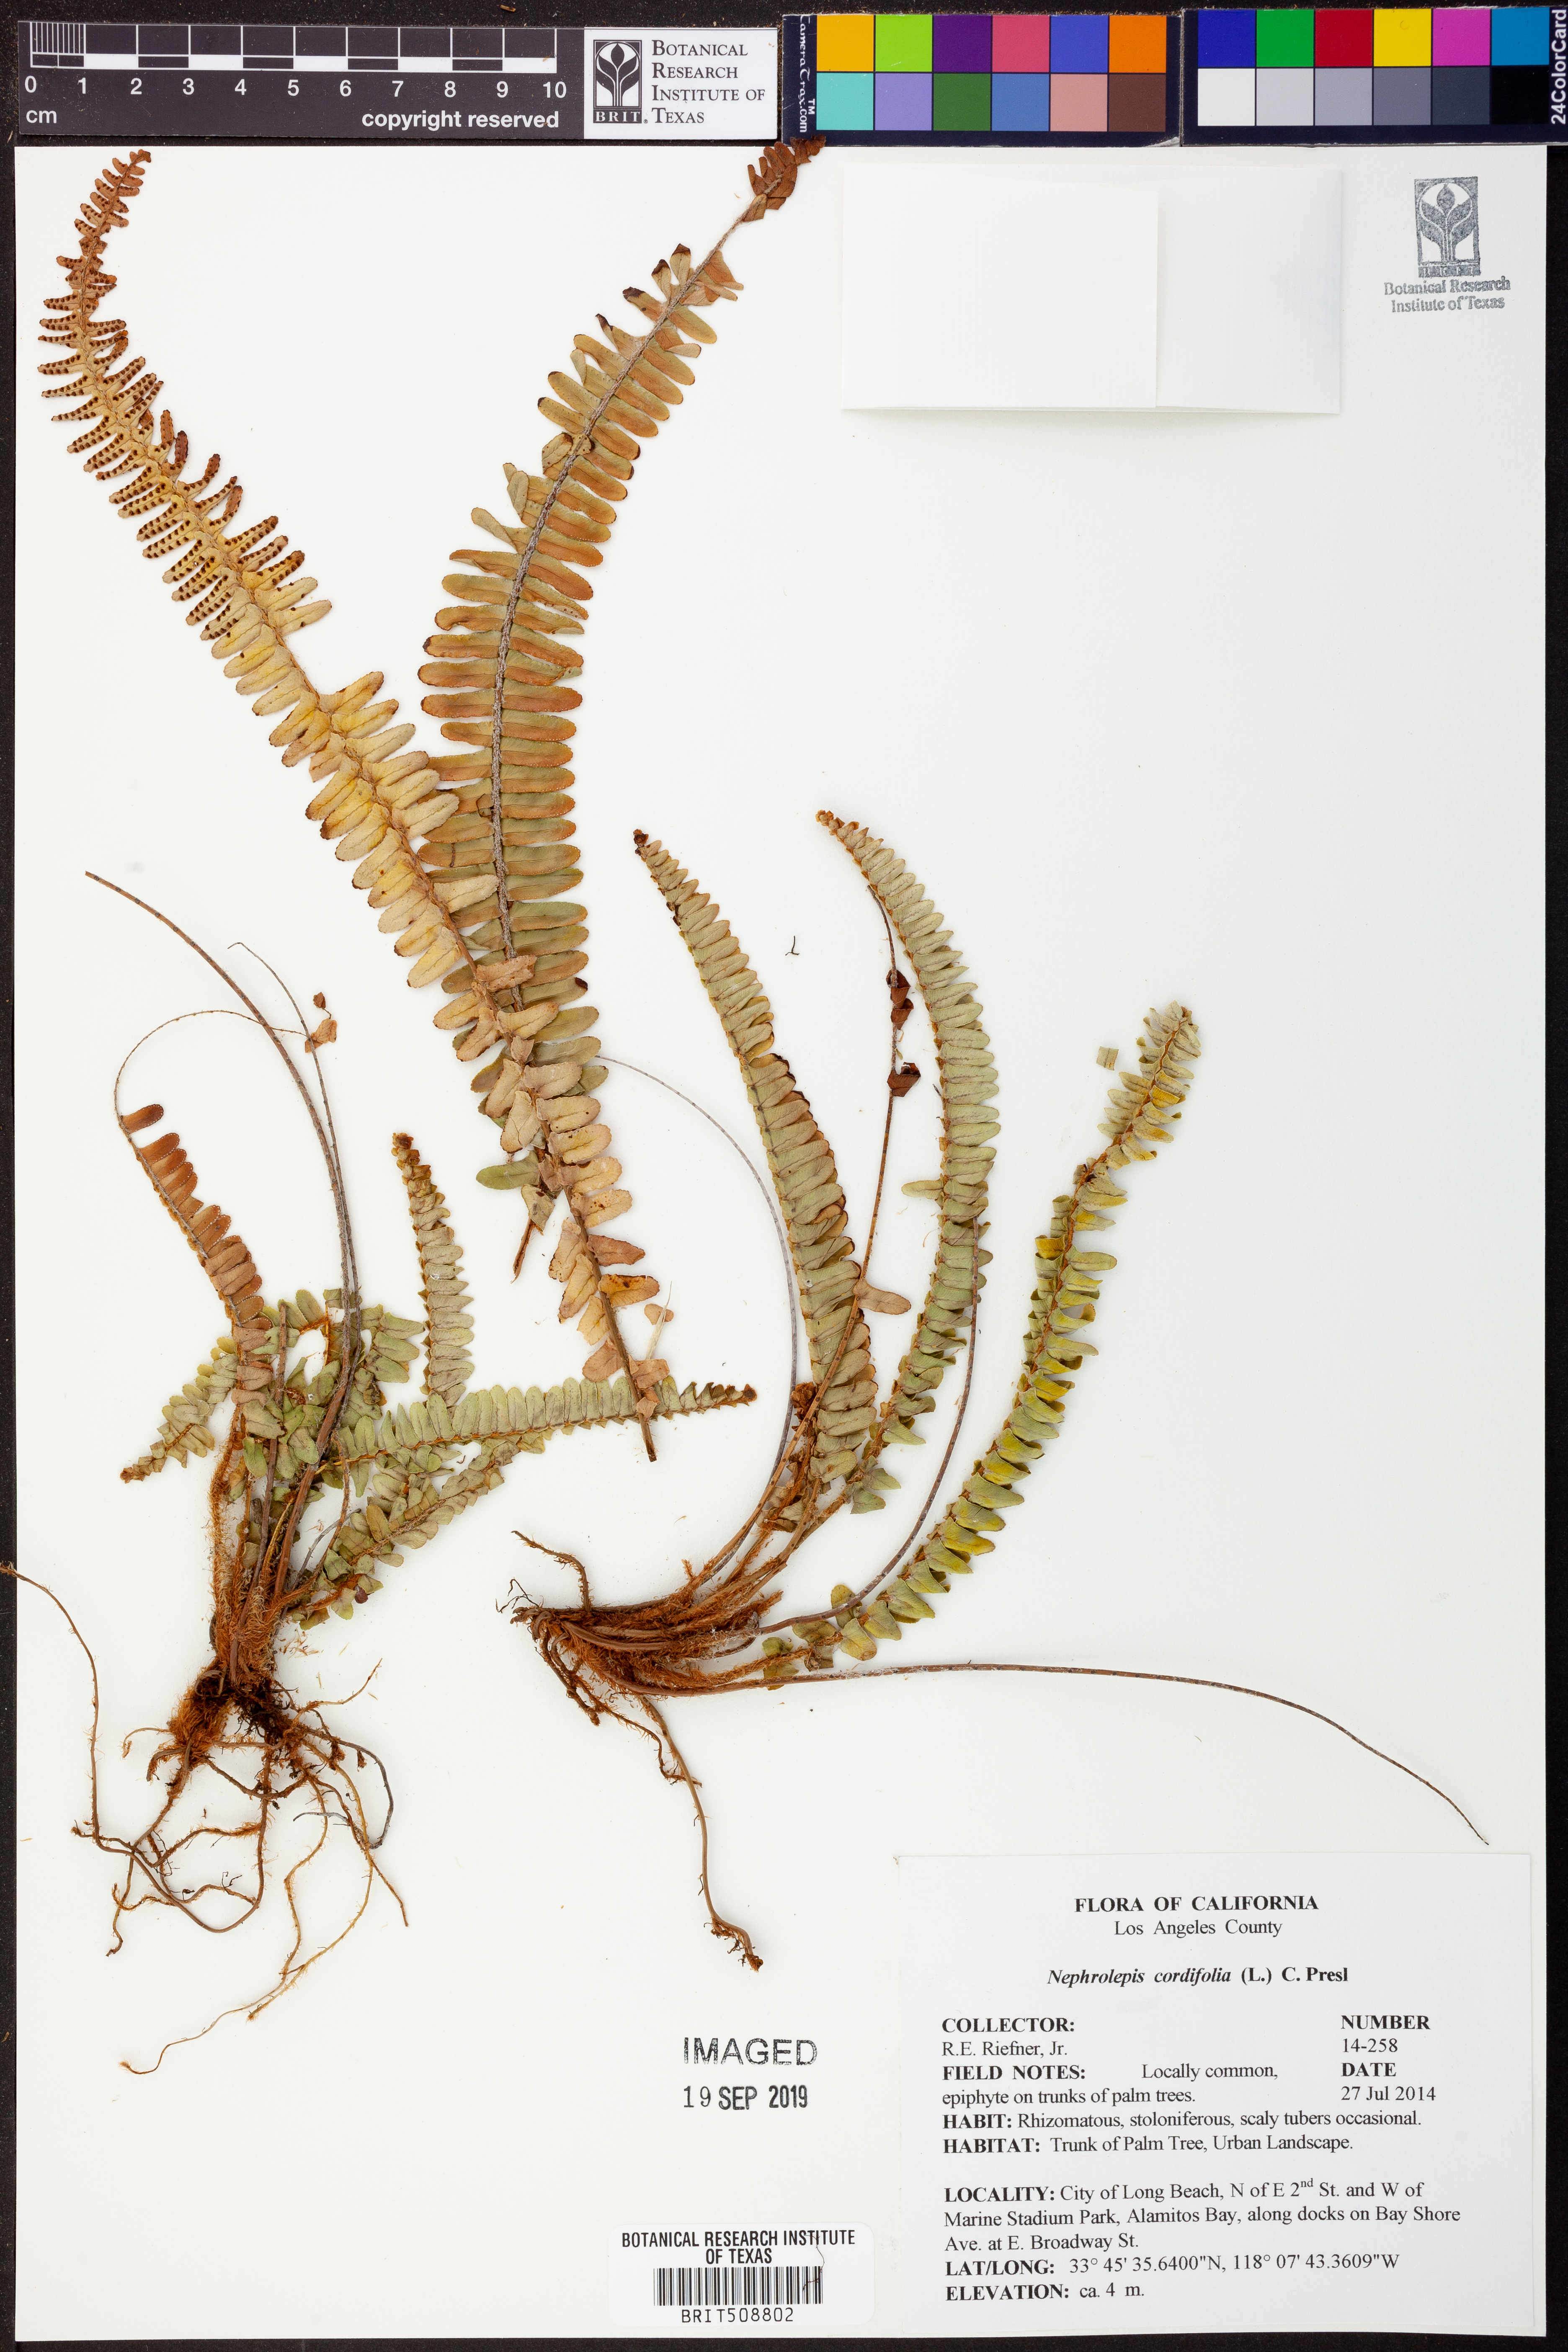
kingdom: Plantae
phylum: Tracheophyta
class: Polypodiopsida
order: Polypodiales
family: Nephrolepidaceae
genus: Nephrolepis
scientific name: Nephrolepis cordifolia
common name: Narrow swordfern
